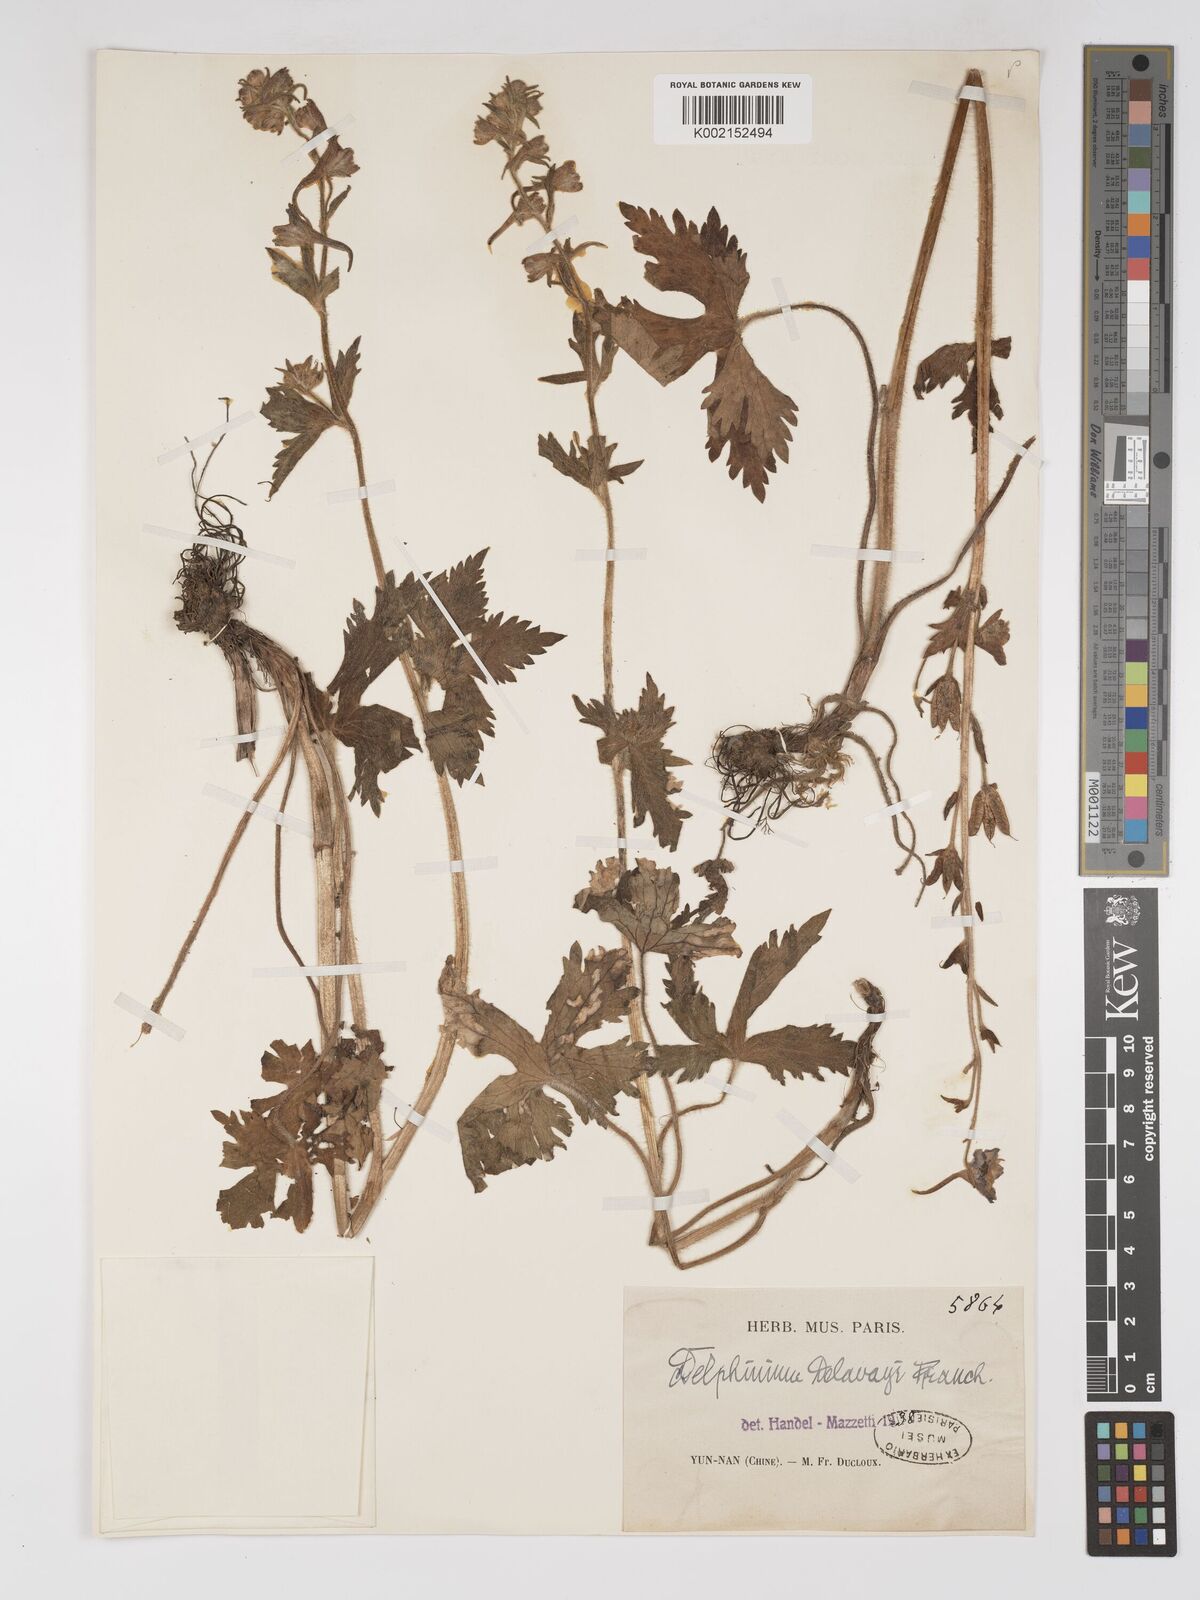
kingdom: Plantae
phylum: Tracheophyta
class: Magnoliopsida
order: Ranunculales
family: Ranunculaceae
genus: Delphinium
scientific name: Delphinium delavayi
